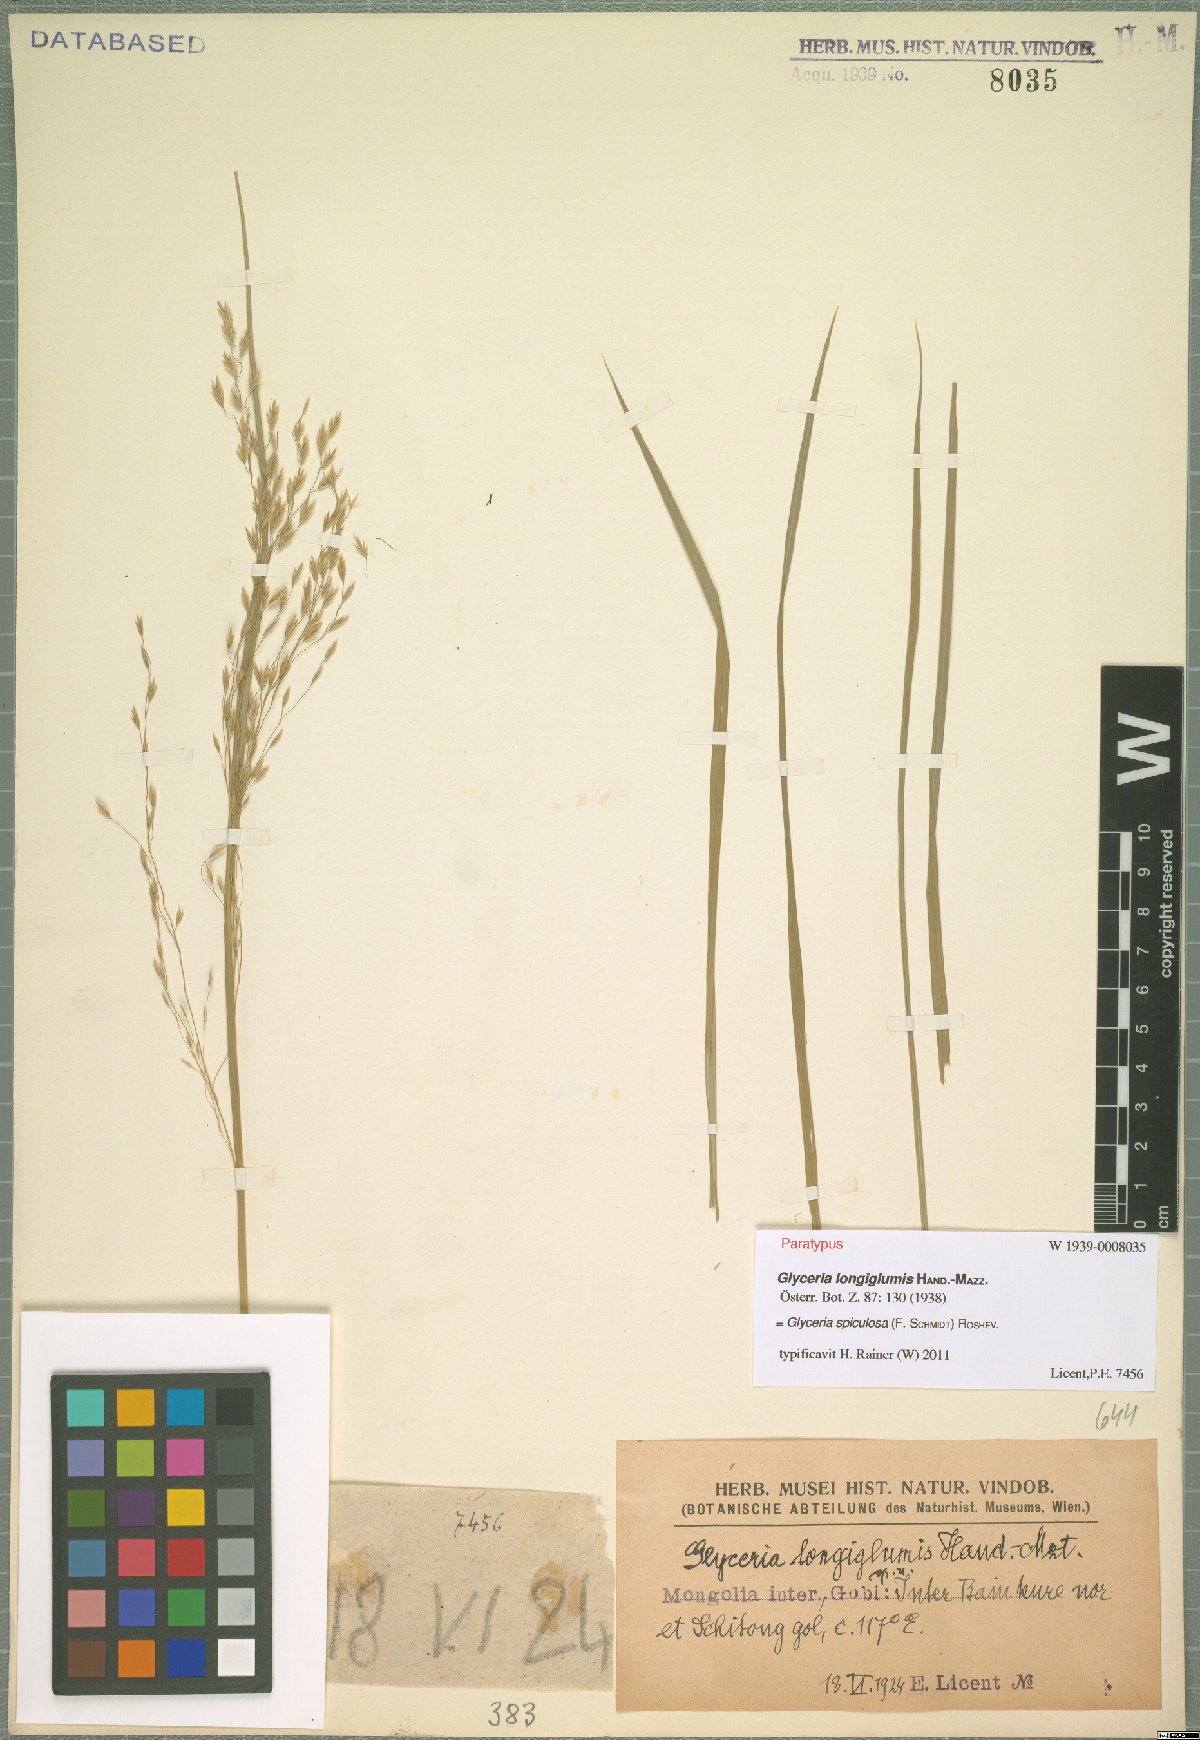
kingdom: Plantae
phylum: Tracheophyta
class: Liliopsida
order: Poales
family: Poaceae
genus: Glyceria
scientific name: Glyceria spiculosa
